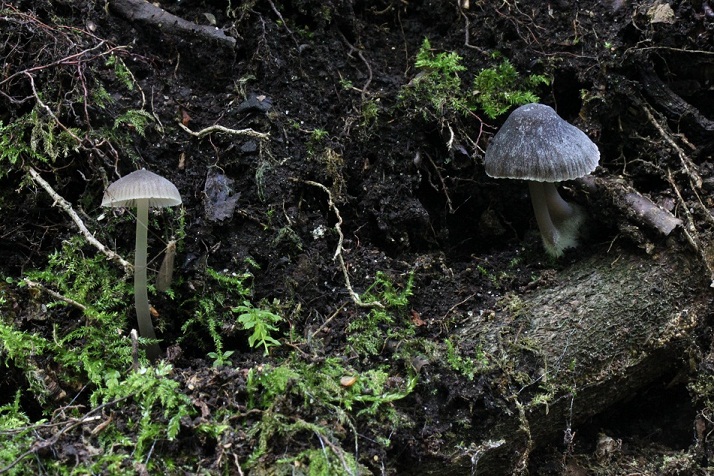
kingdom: Fungi
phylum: Basidiomycota
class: Agaricomycetes
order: Agaricales
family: Mycenaceae
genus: Mycena
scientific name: Mycena abramsii
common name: sommer-huesvamp
